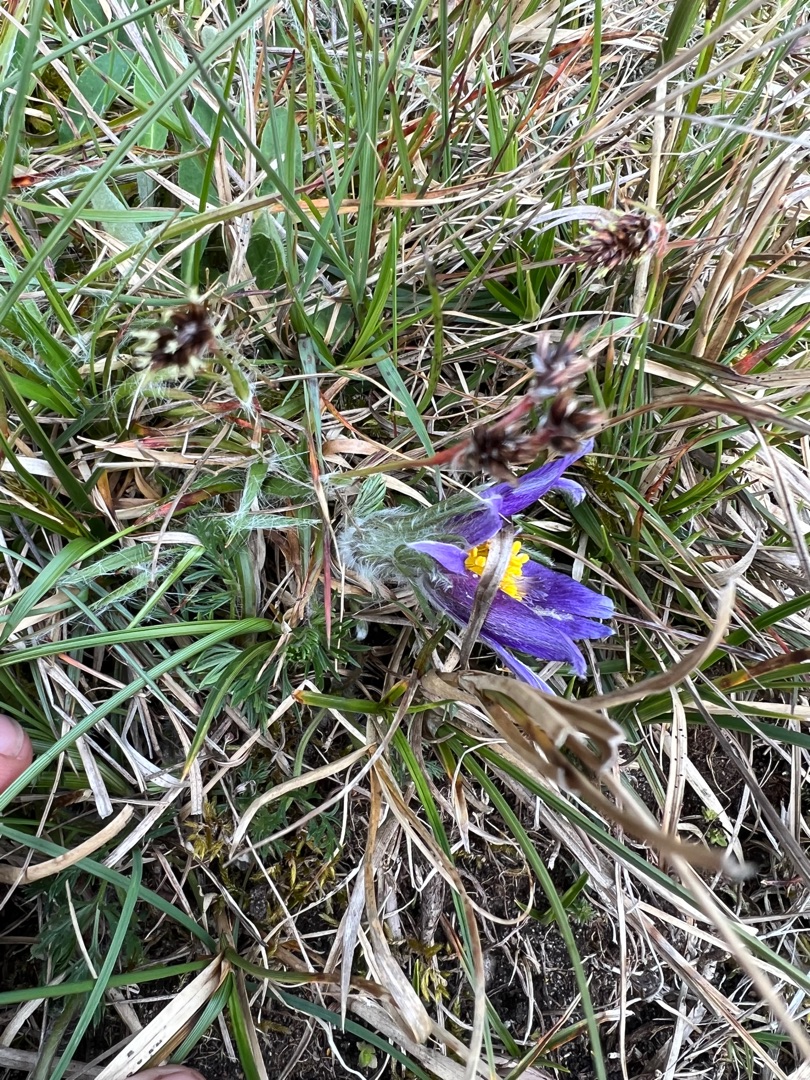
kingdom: Plantae
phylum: Tracheophyta
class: Magnoliopsida
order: Ranunculales
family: Ranunculaceae
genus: Pulsatilla
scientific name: Pulsatilla vulgaris
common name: Opret kobjælde
